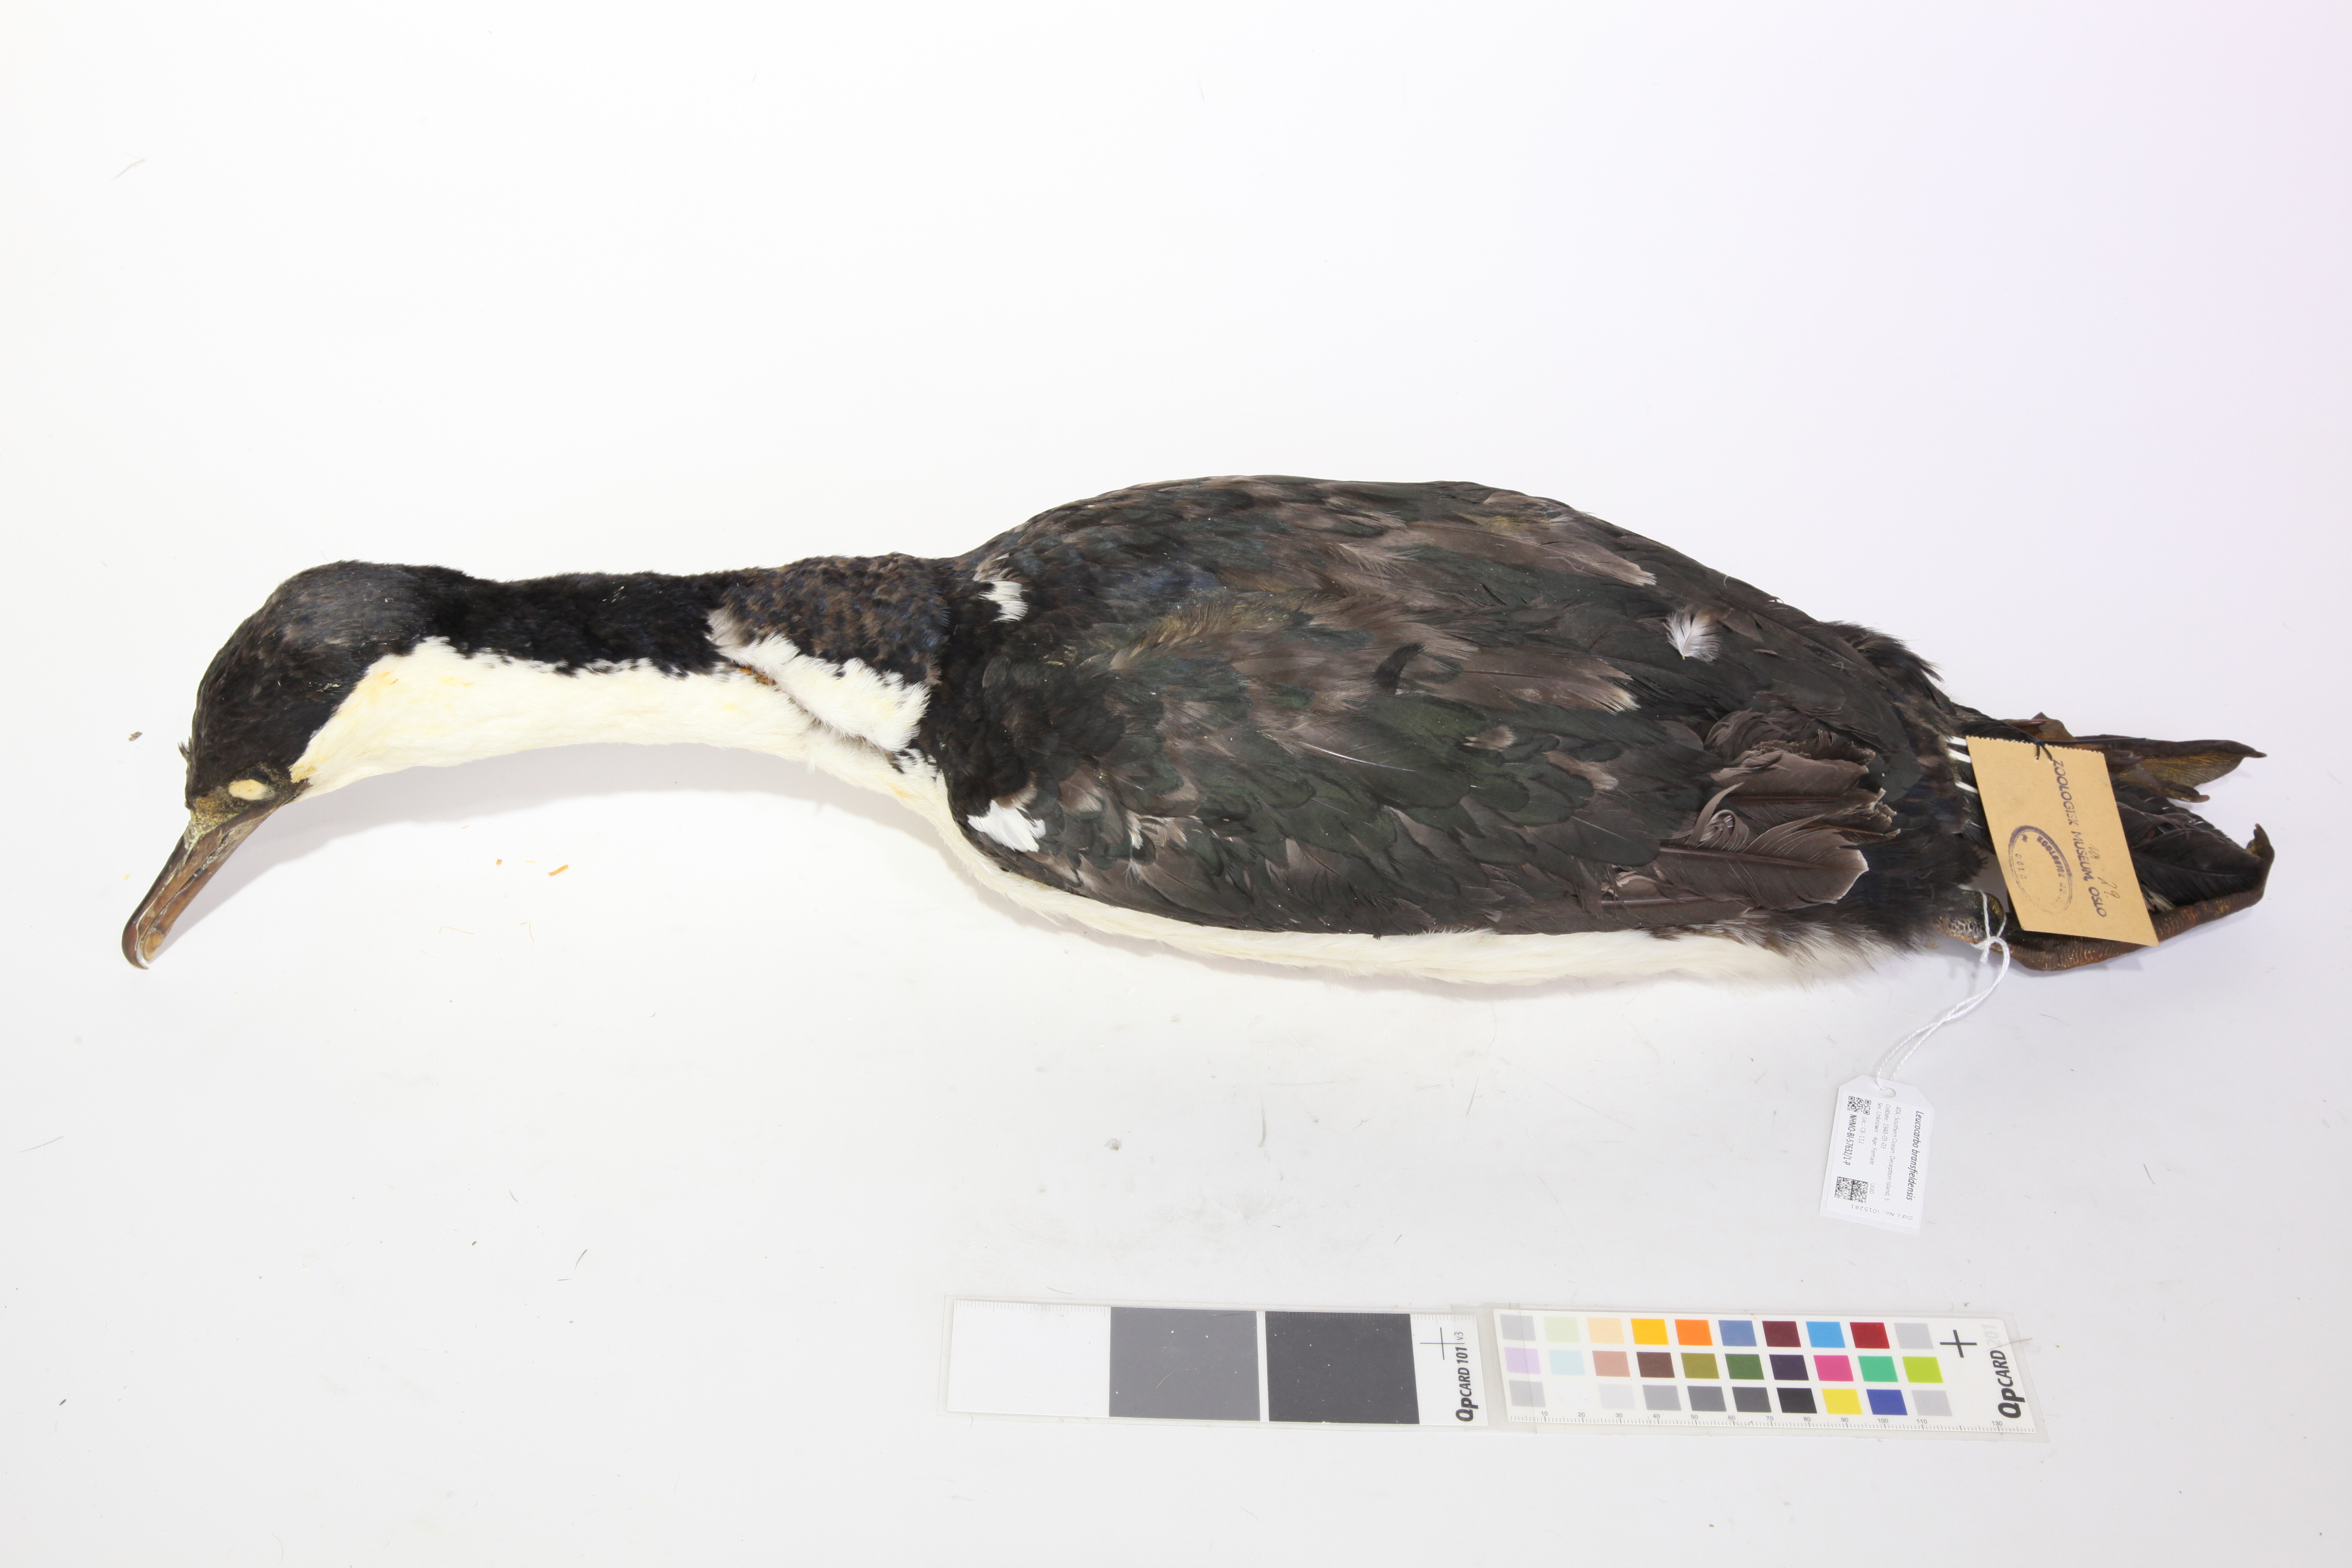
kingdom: Animalia
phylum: Chordata
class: Aves
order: Suliformes
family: Phalacrocoracidae
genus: Leucocarbo
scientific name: Leucocarbo atriceps
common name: Imperial shag
